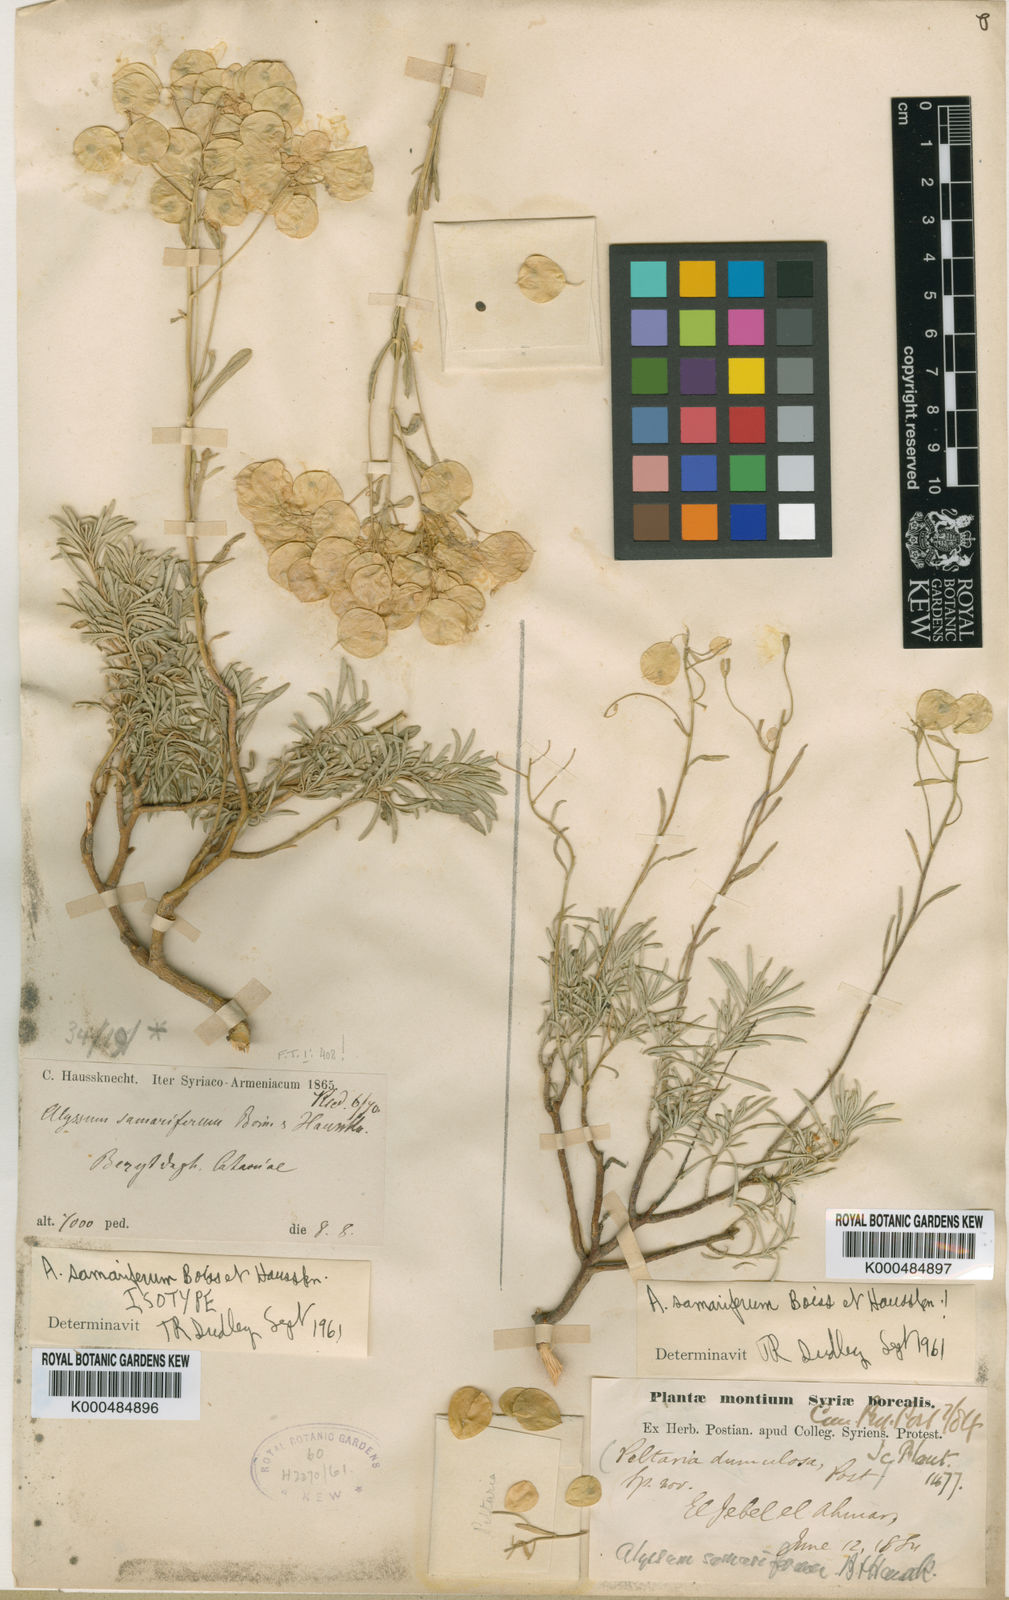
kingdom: Plantae
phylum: Tracheophyta
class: Magnoliopsida
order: Brassicales
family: Brassicaceae
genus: Odontarrhena
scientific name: Odontarrhena
